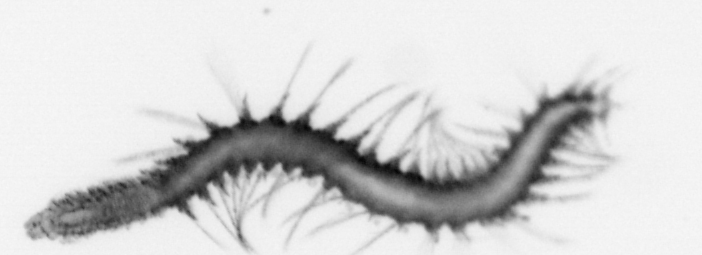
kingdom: Animalia
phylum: Annelida
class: Polychaeta
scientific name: Polychaeta
